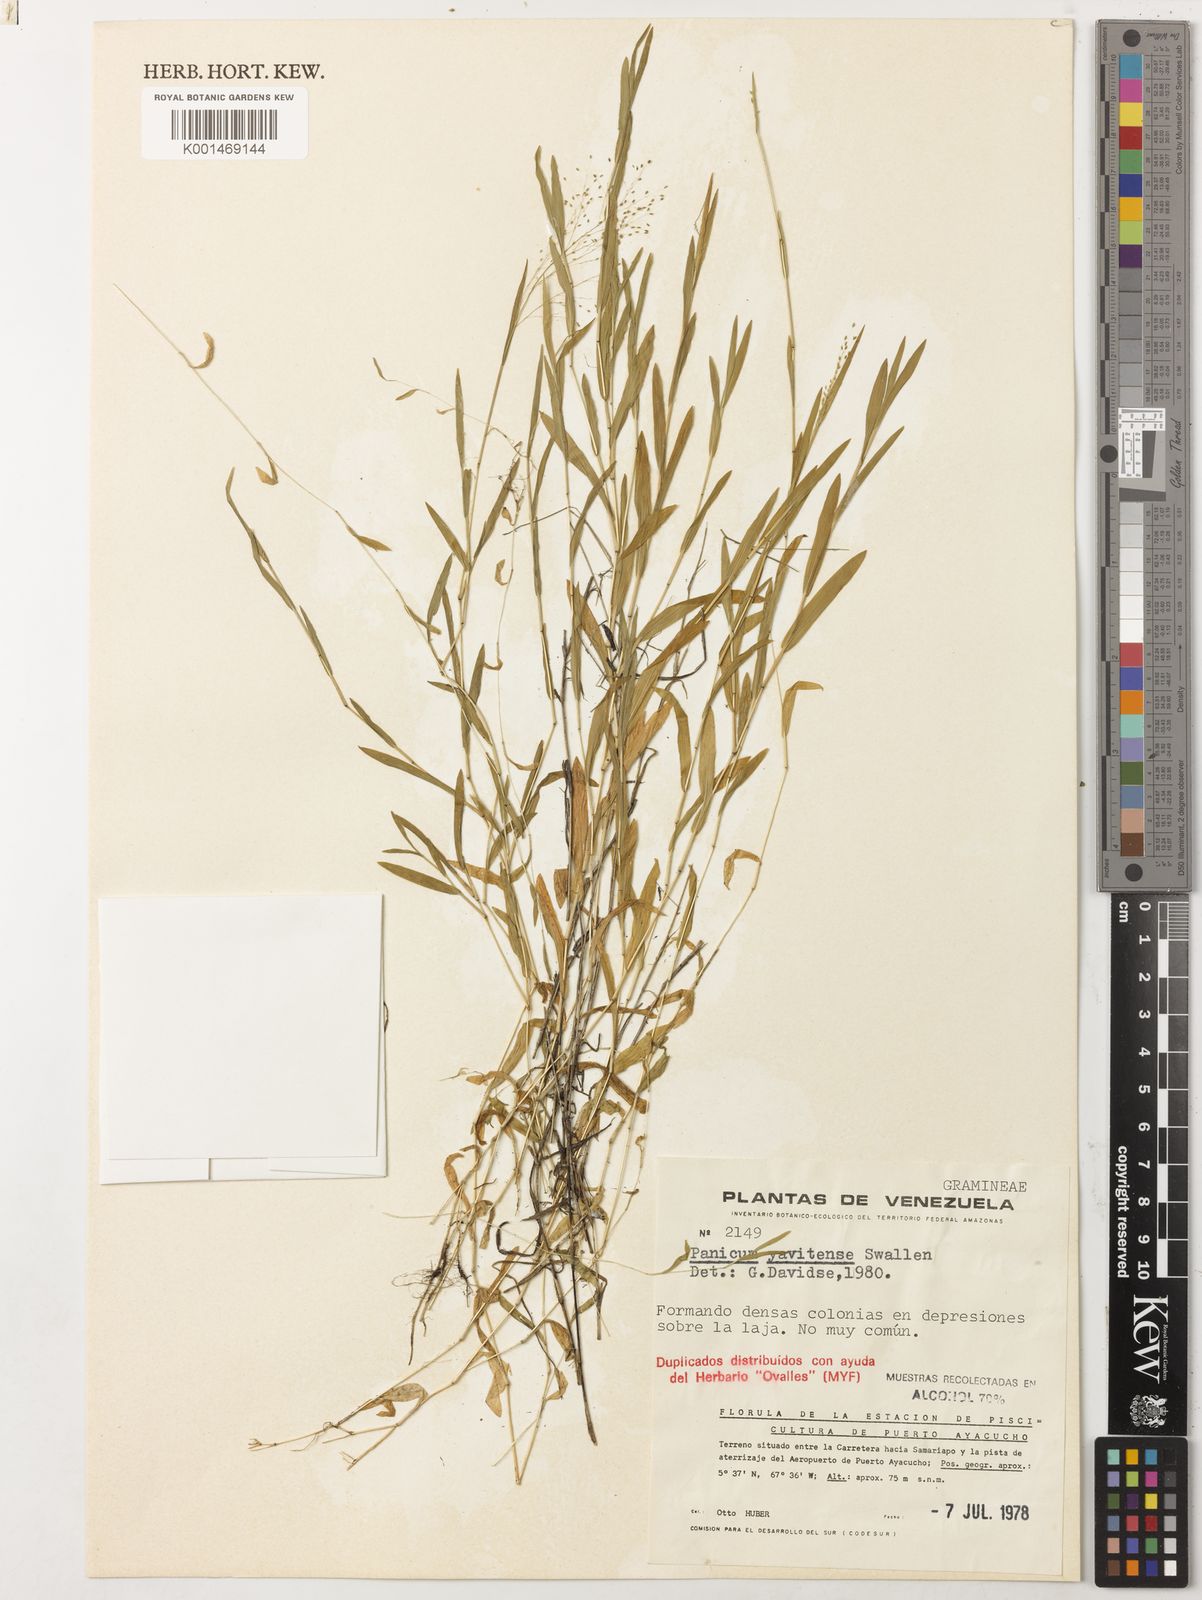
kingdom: Plantae
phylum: Tracheophyta
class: Liliopsida
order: Poales
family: Poaceae
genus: Trichanthecium
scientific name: Trichanthecium yavitaense
